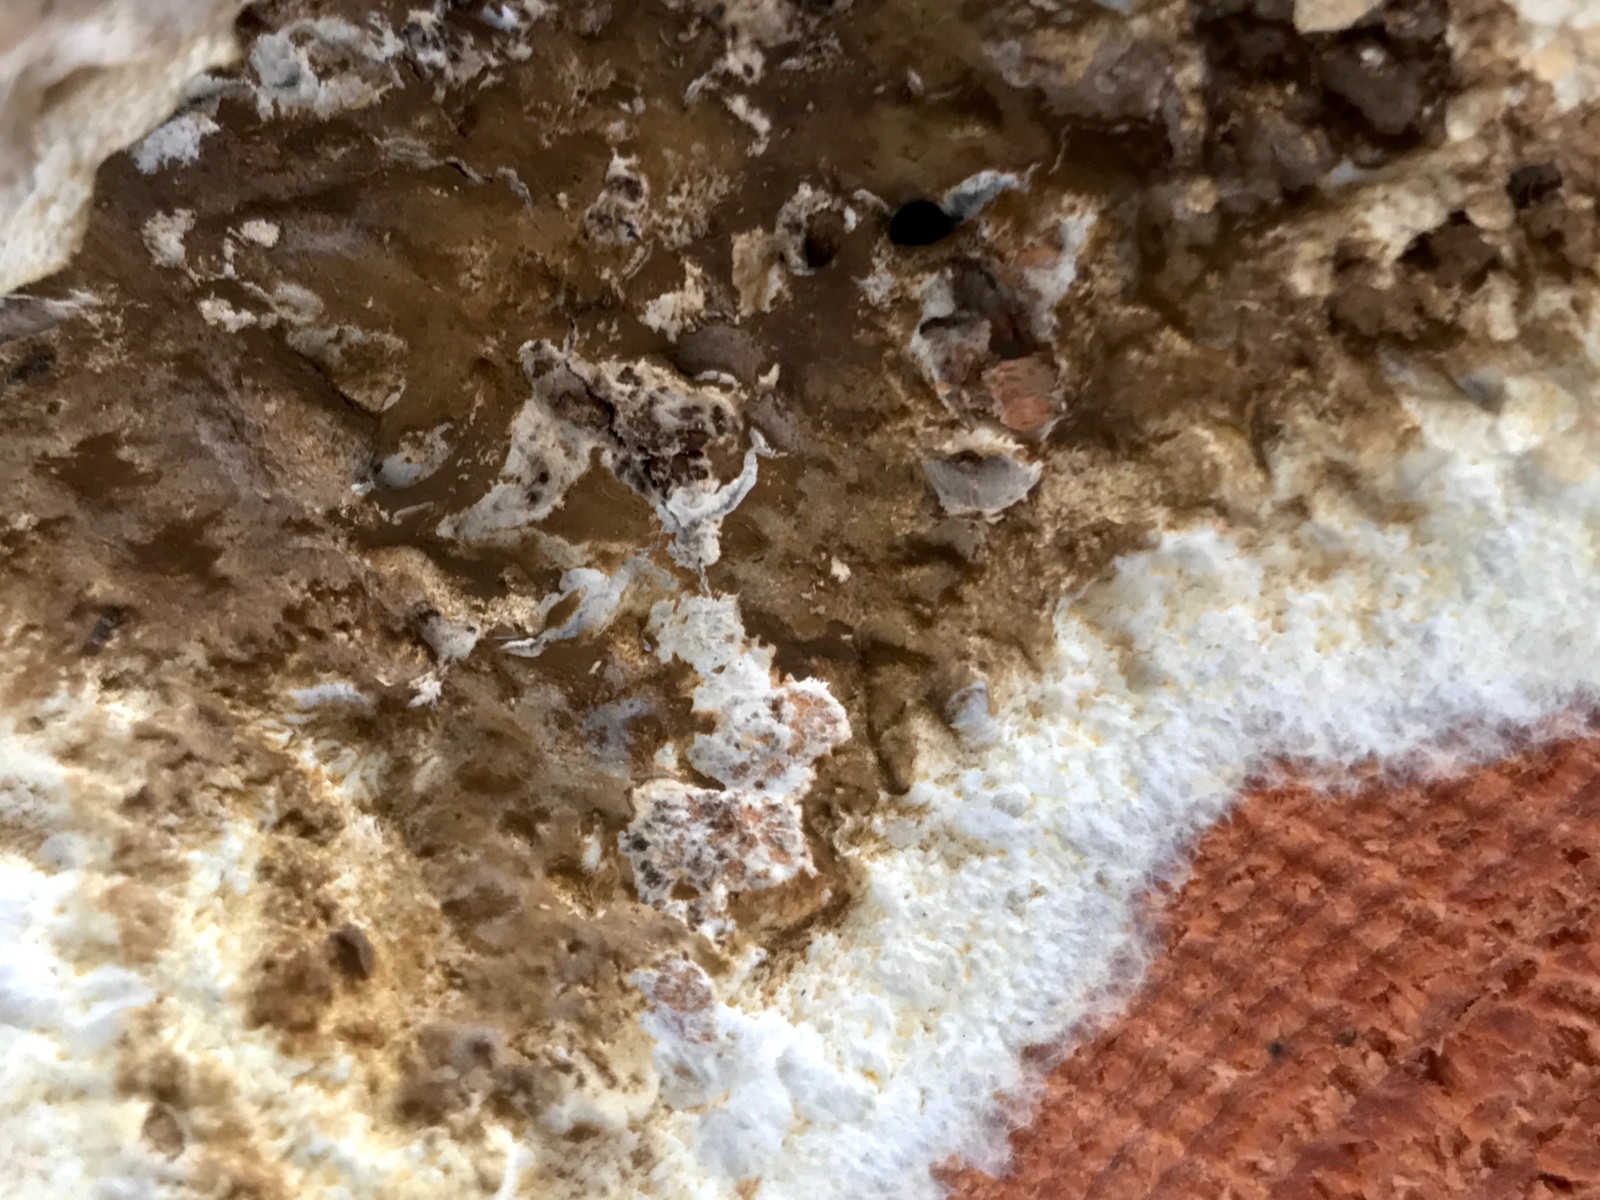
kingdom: Fungi
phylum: Basidiomycota
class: Agaricomycetes
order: Boletales
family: Coniophoraceae
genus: Coniophora
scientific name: Coniophora puteana
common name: gul tømmersvamp
